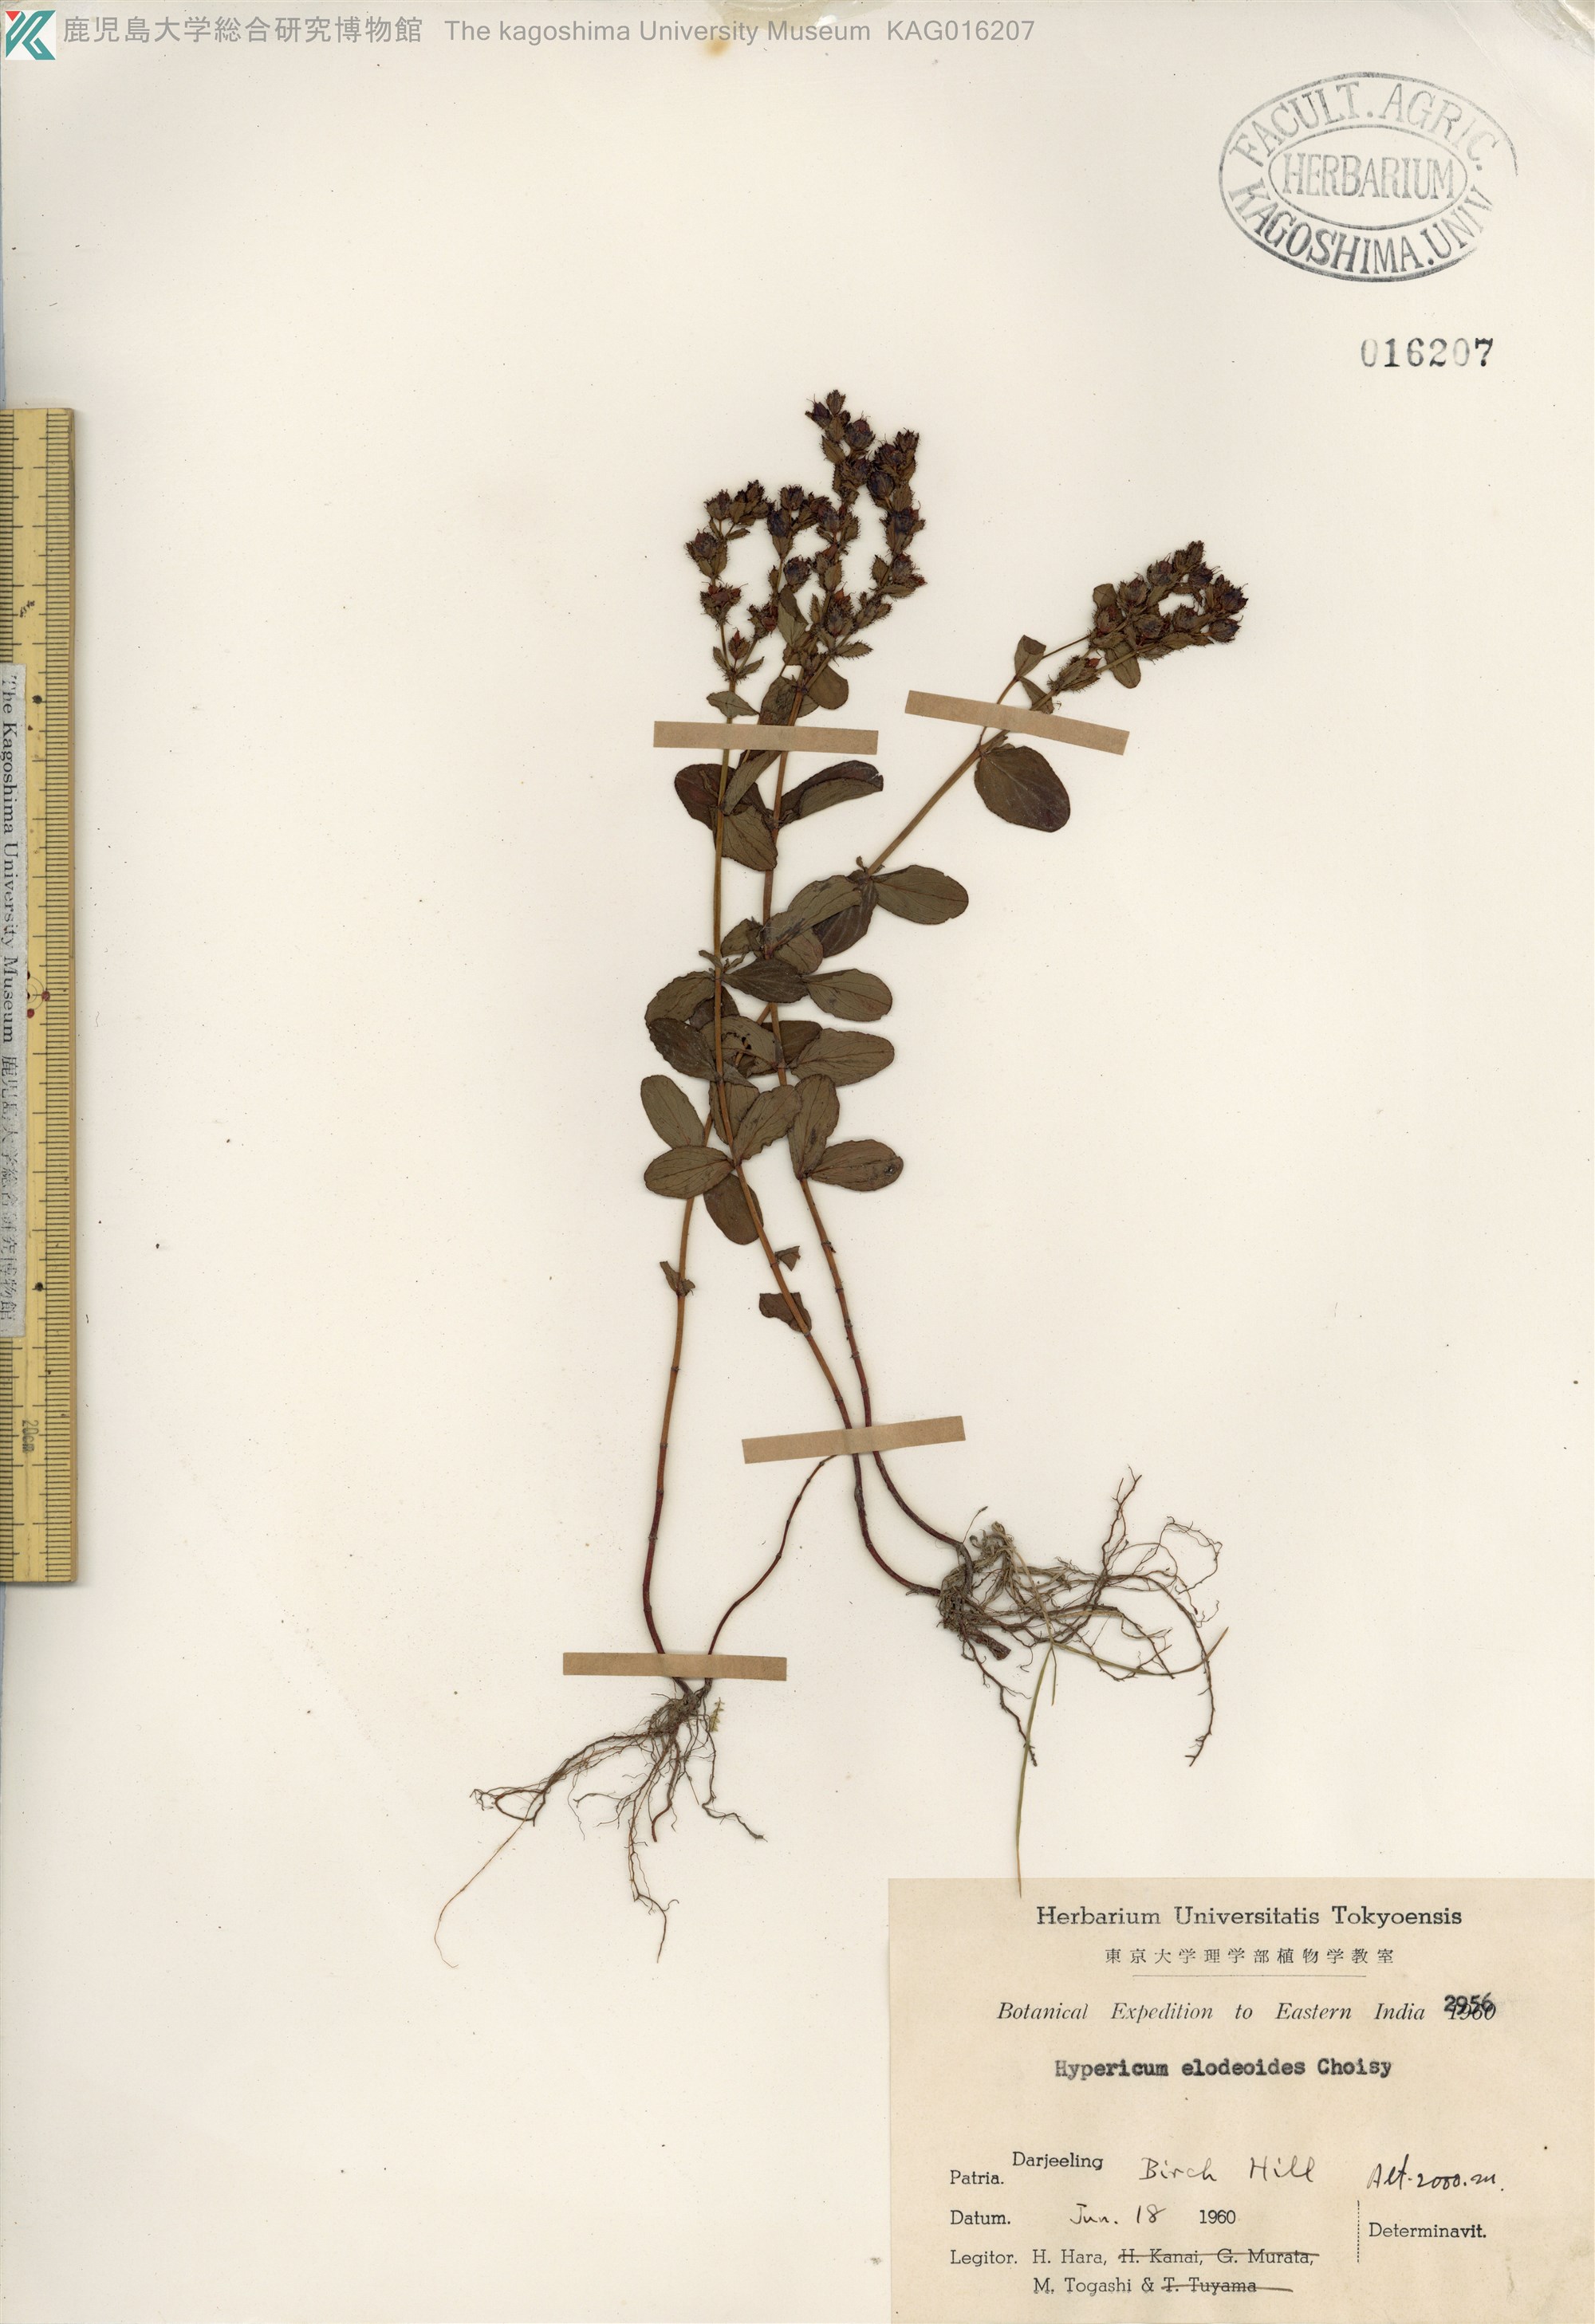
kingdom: Plantae
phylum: Tracheophyta
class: Magnoliopsida
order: Malpighiales
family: Hypericaceae
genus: Hypericum
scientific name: Hypericum elodeoides
